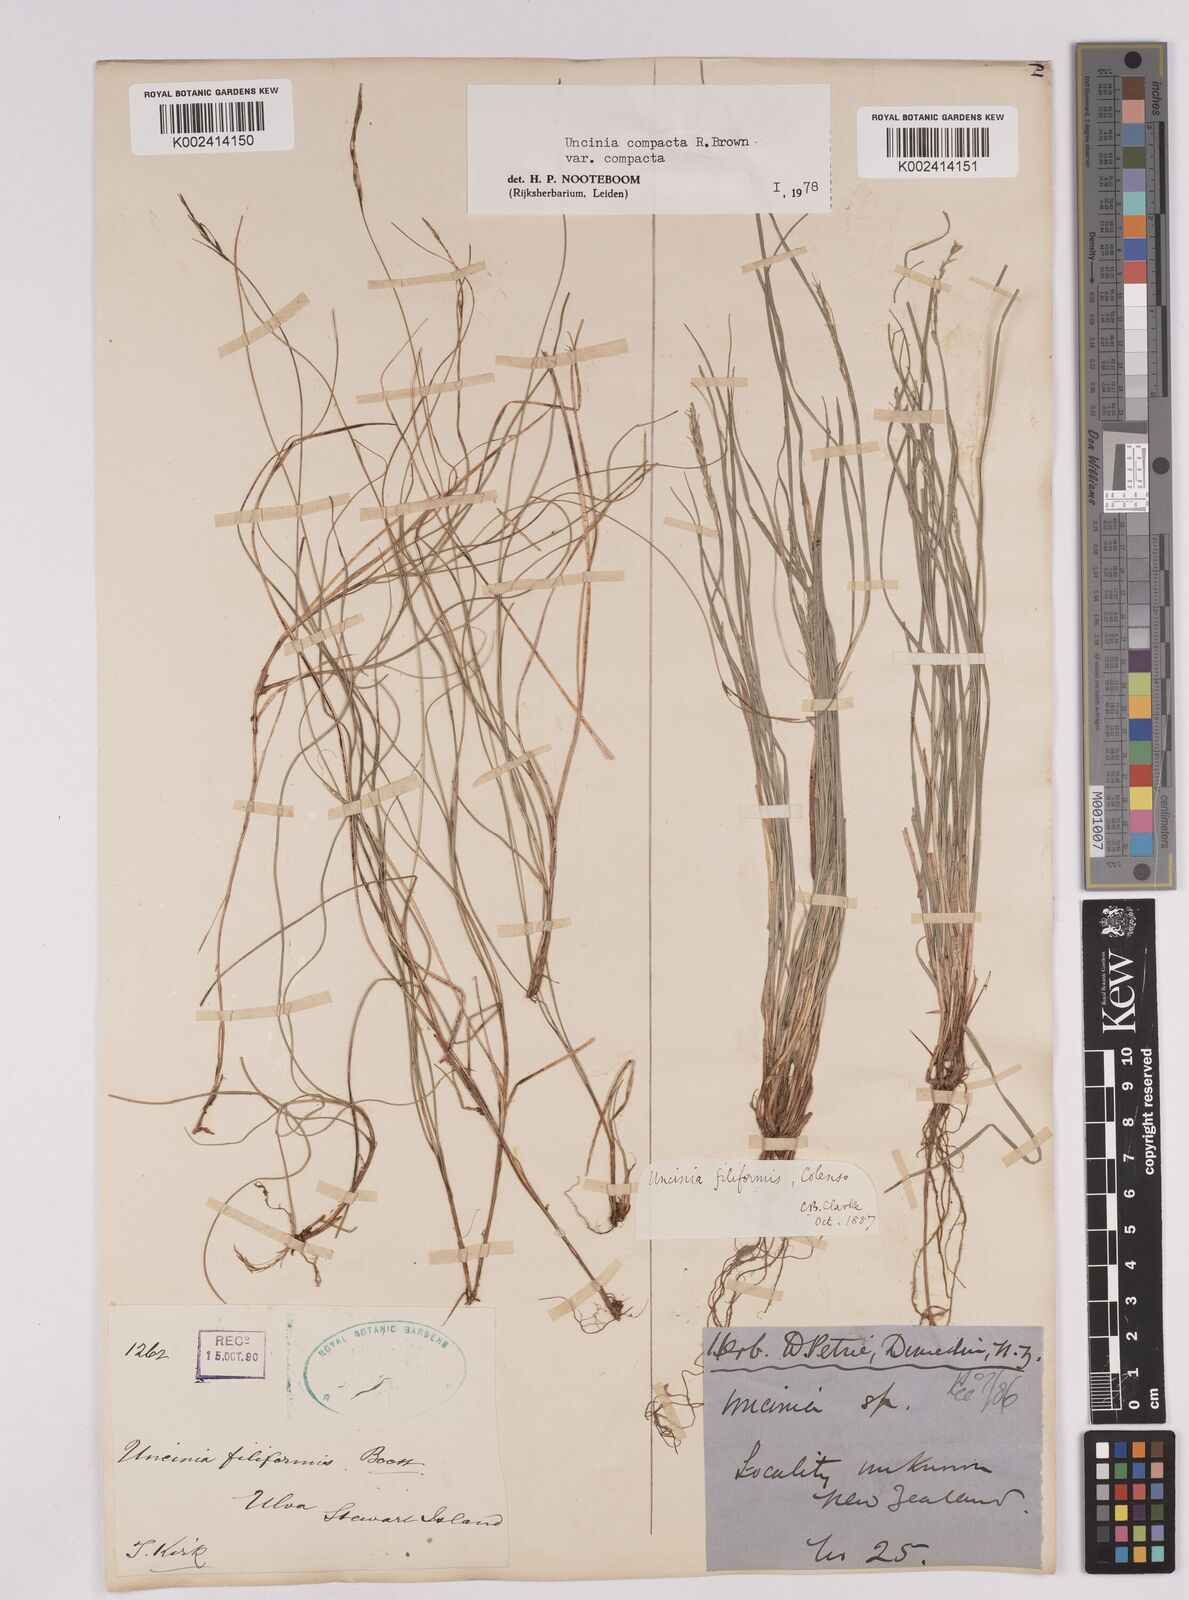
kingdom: Plantae
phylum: Tracheophyta
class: Liliopsida
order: Poales
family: Cyperaceae
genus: Carex
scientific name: Carex austrocompacta
